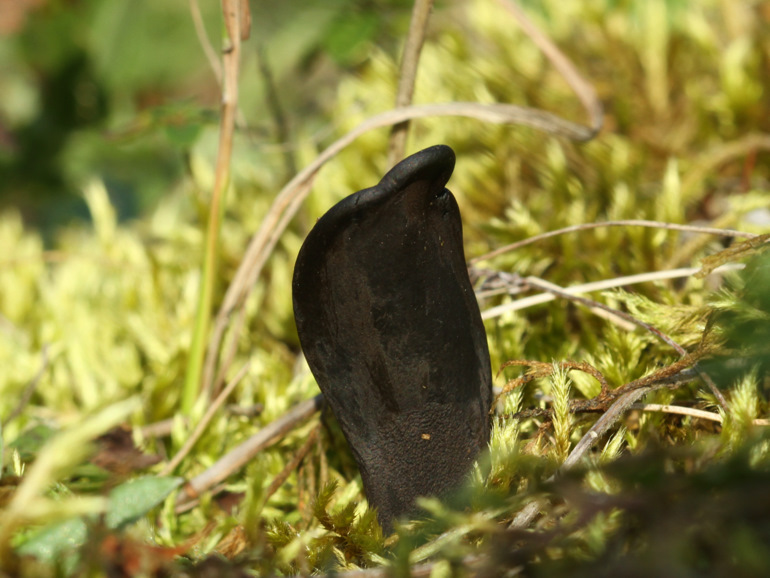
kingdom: Fungi
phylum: Ascomycota
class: Geoglossomycetes
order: Geoglossales
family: Geoglossaceae
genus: Geoglossum
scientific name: Geoglossum cookeianum
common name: bred jordtunge
